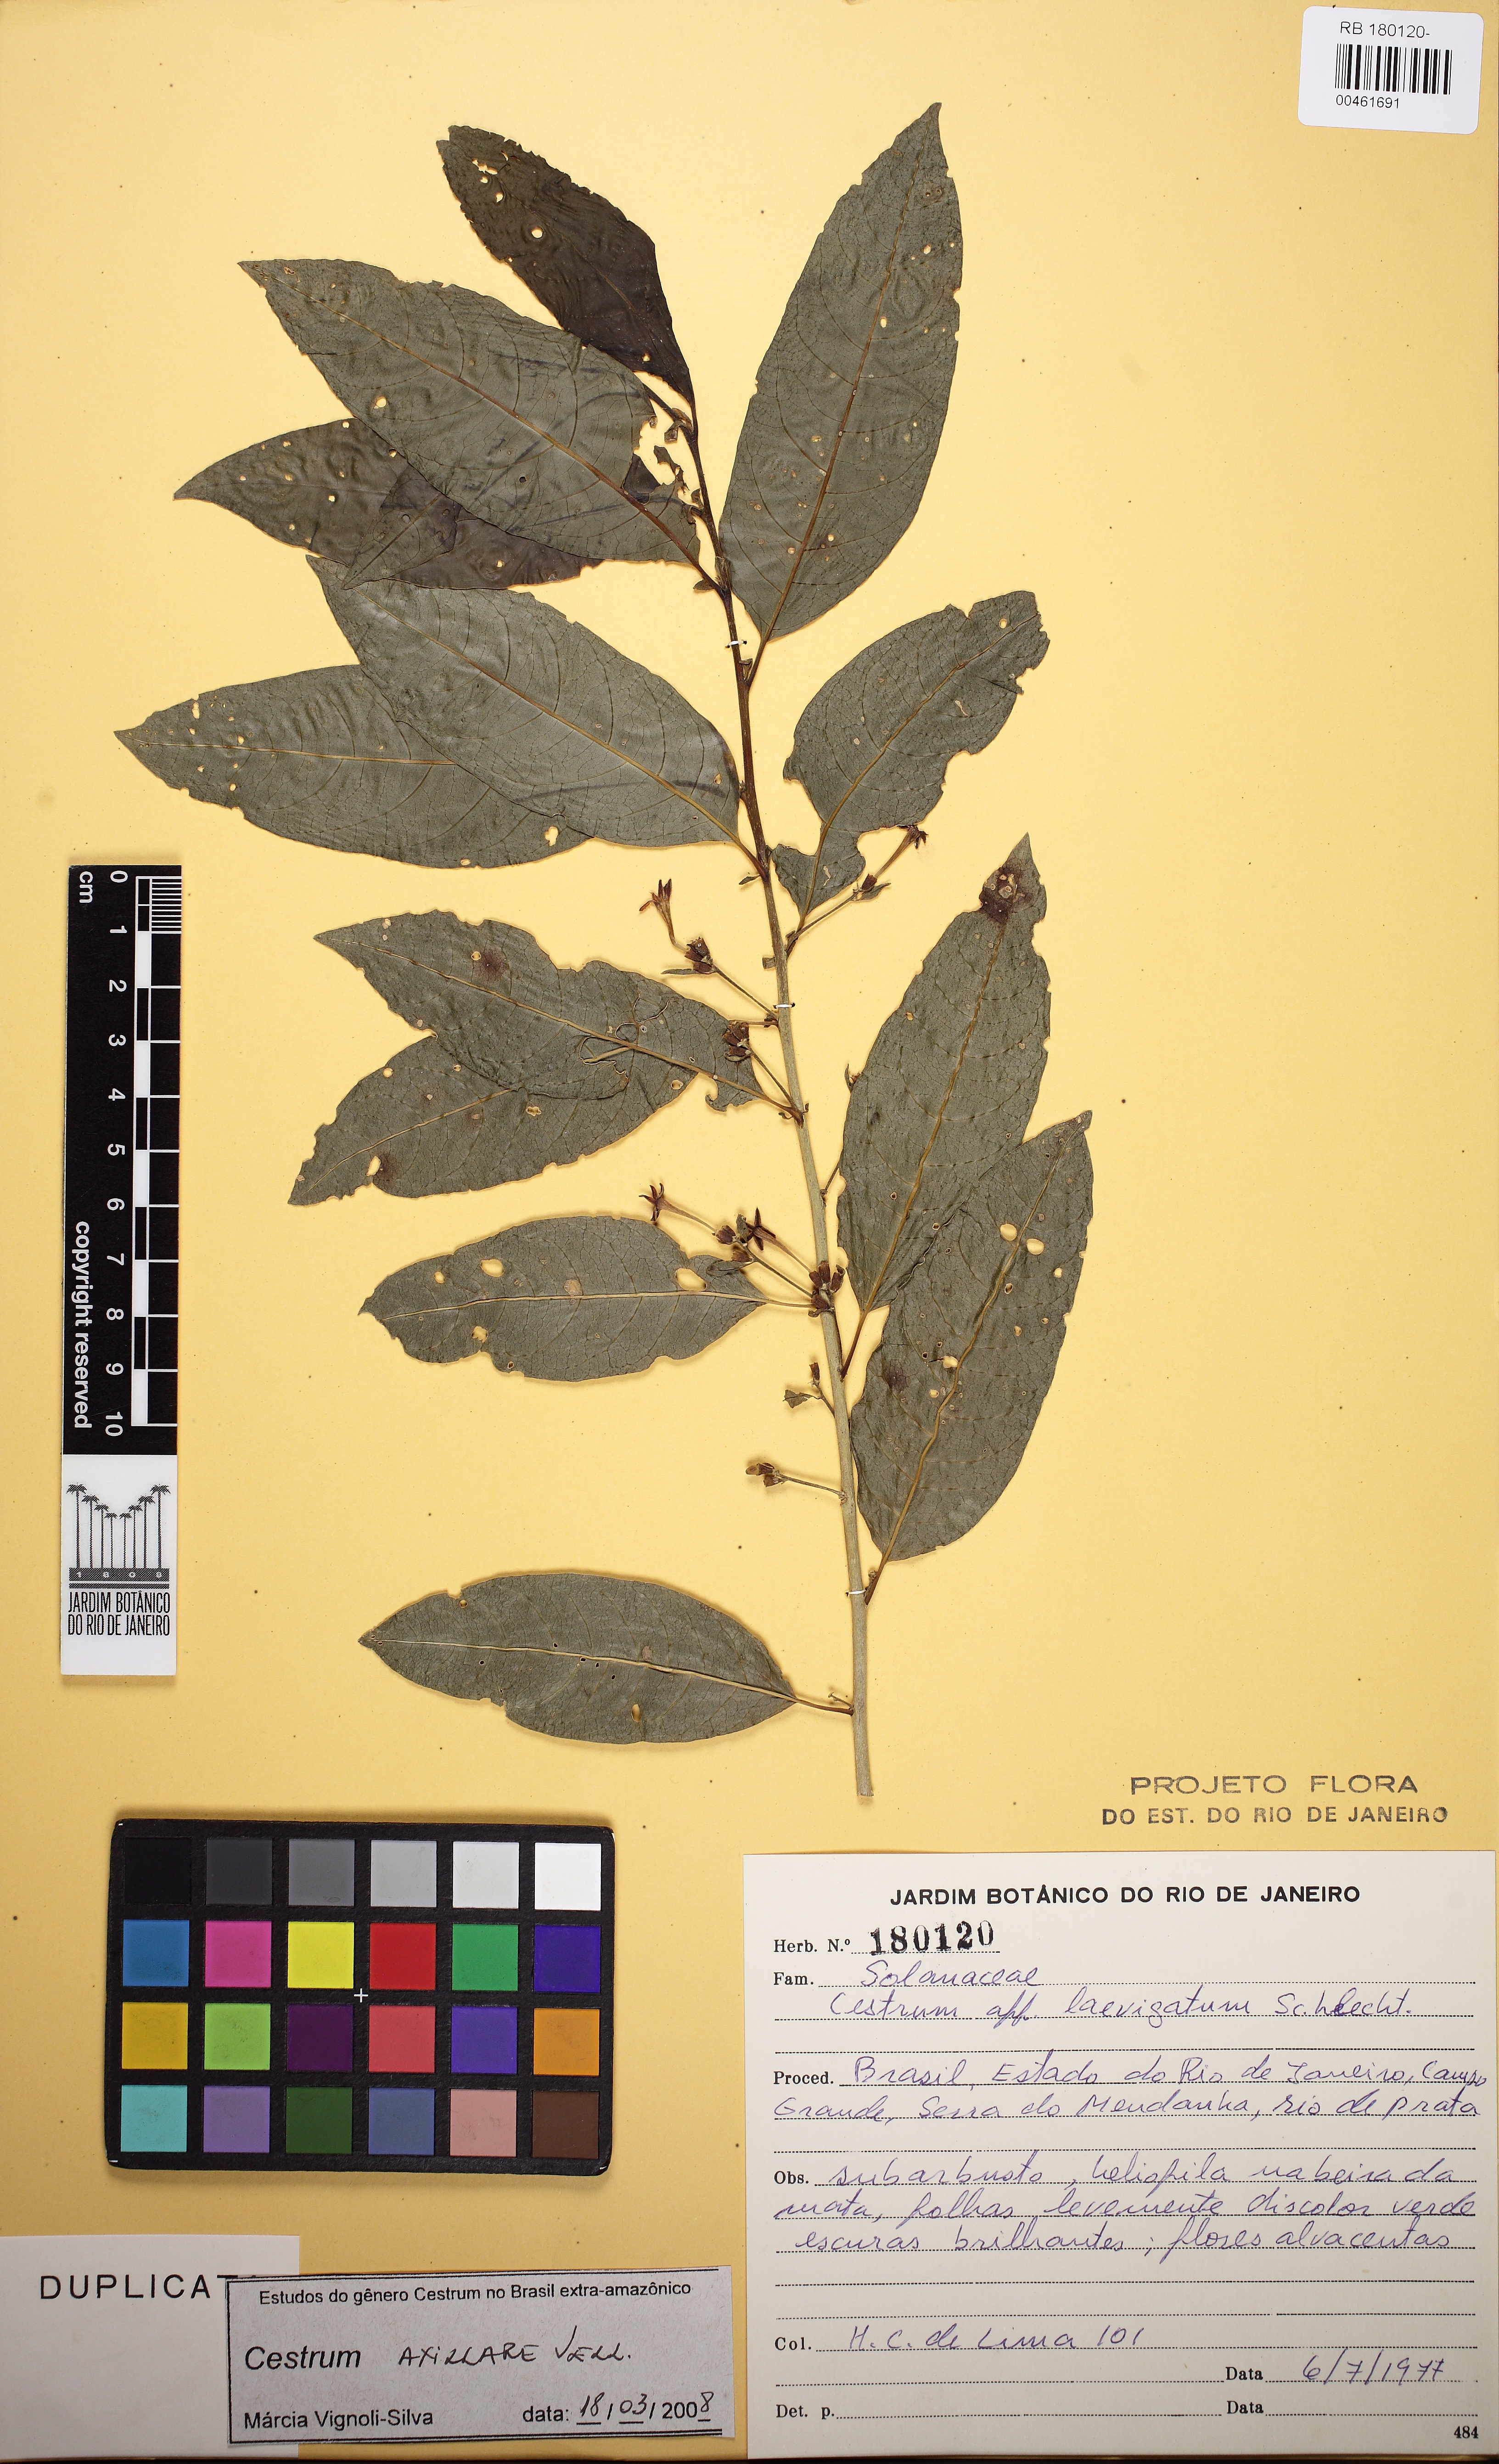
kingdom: Plantae
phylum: Tracheophyta
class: Magnoliopsida
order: Solanales
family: Solanaceae
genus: Cestrum
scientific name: Cestrum laevigatum
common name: Inkberry
